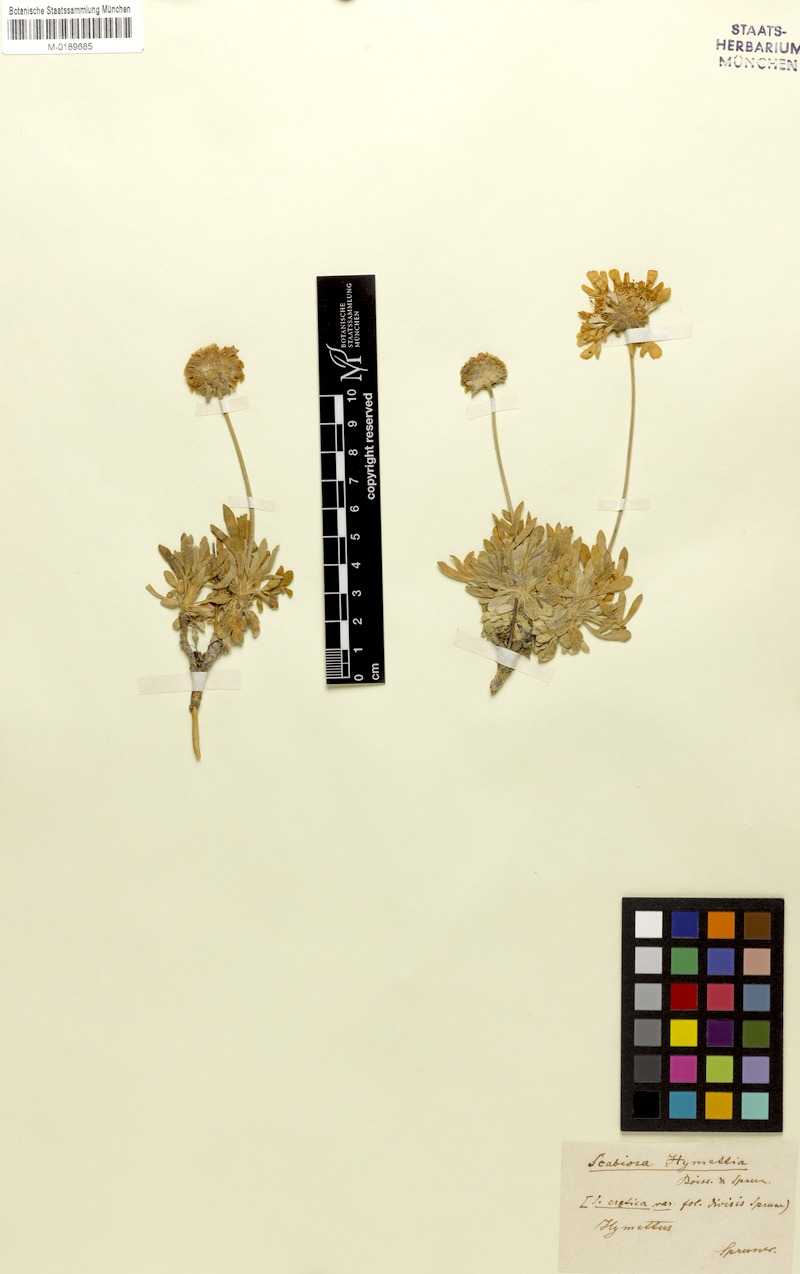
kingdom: Plantae
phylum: Tracheophyta
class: Magnoliopsida
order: Dipsacales
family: Caprifoliaceae
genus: Lomelosia
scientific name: Lomelosia hymettia
